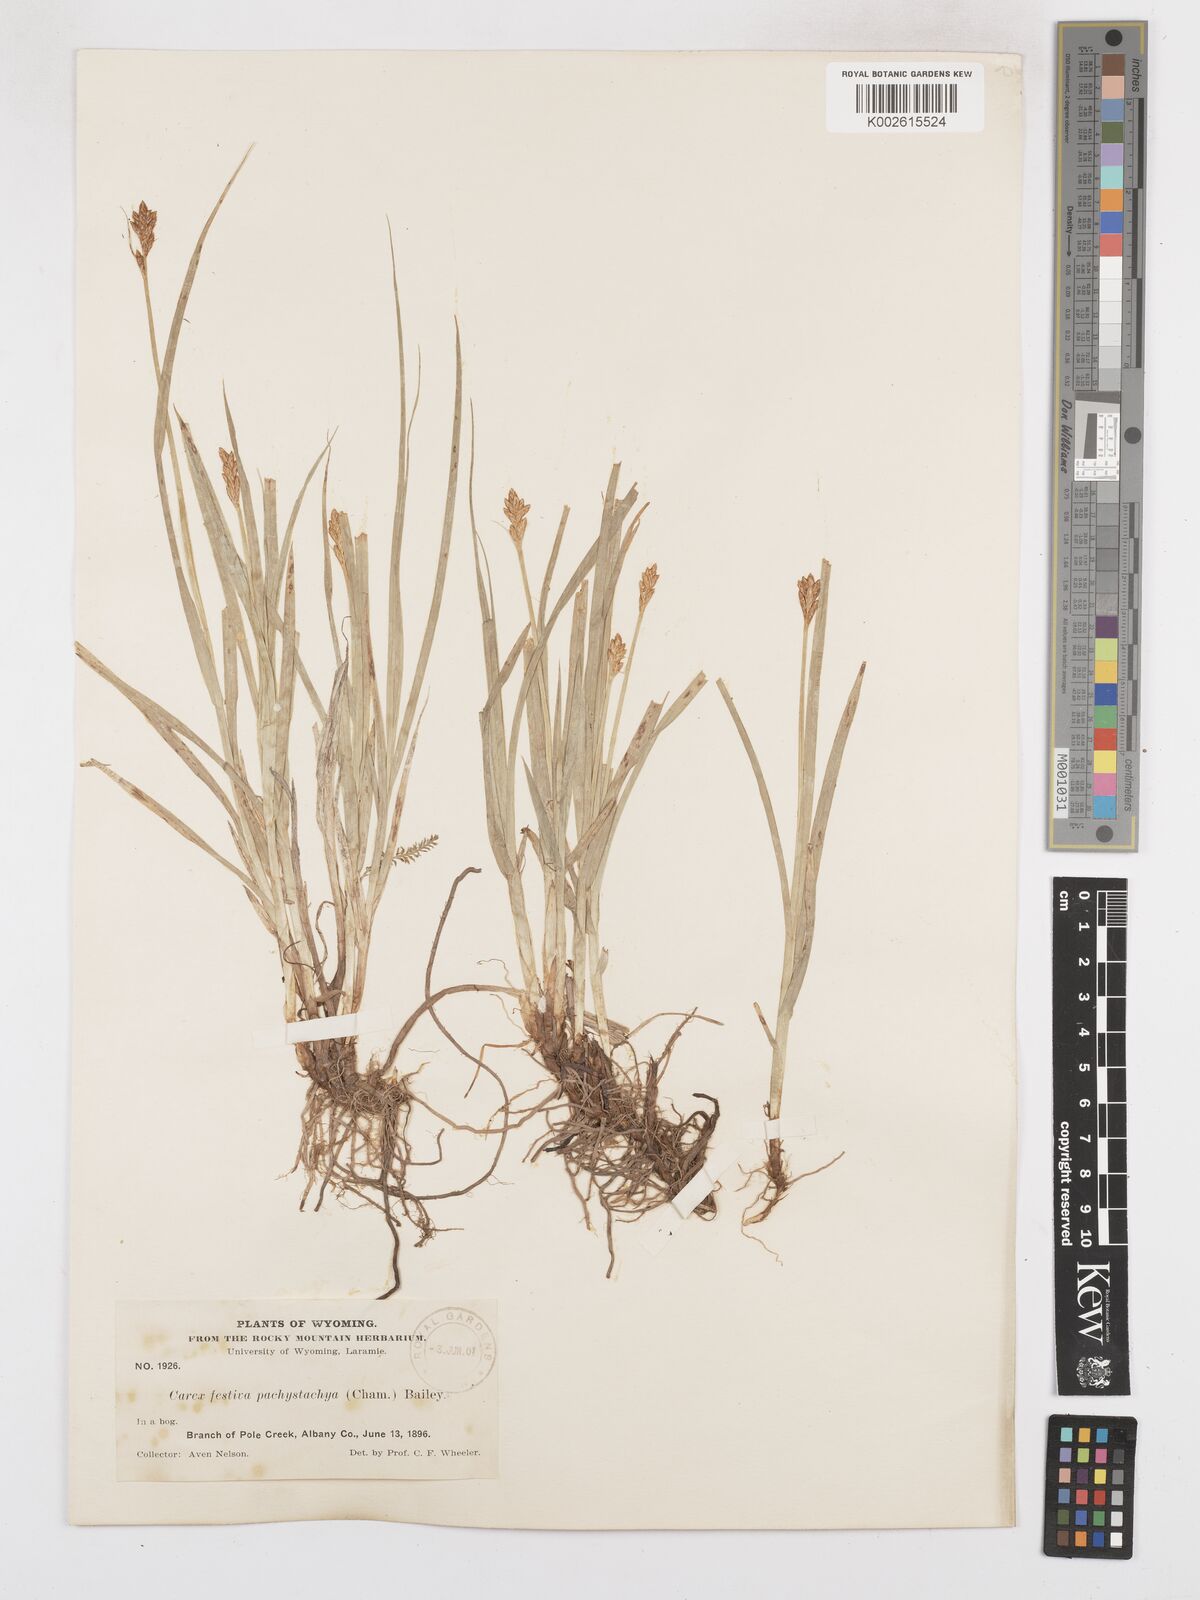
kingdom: Plantae
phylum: Tracheophyta
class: Liliopsida
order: Poales
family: Cyperaceae
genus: Carex
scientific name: Carex macloviana
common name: Falkland island sedge
